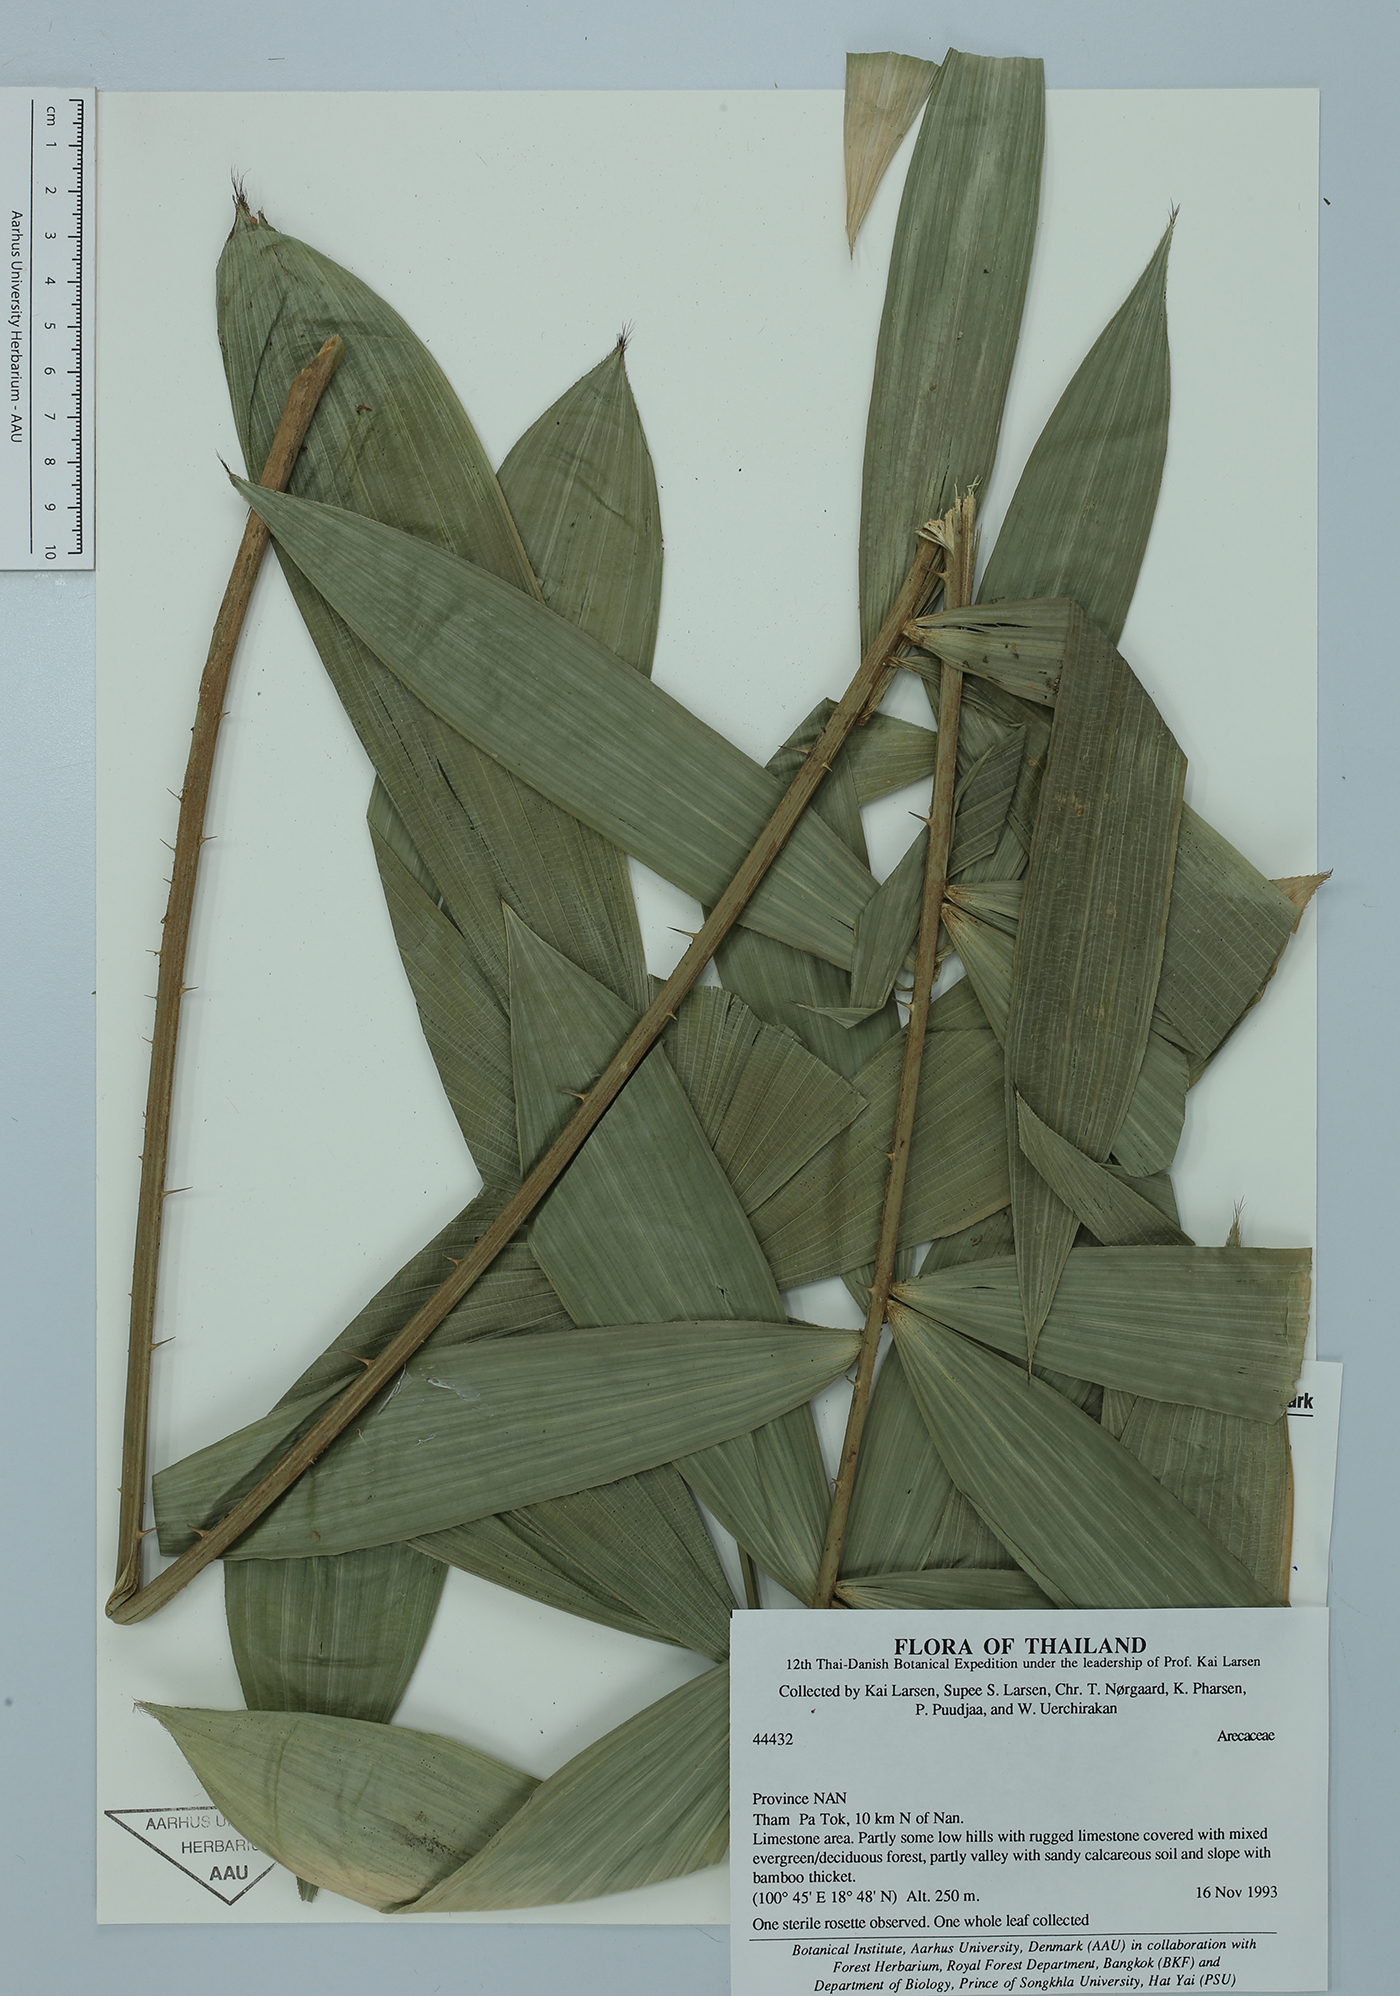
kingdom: Plantae
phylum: Tracheophyta
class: Liliopsida
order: Arecales
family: Arecaceae
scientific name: Arecaceae
